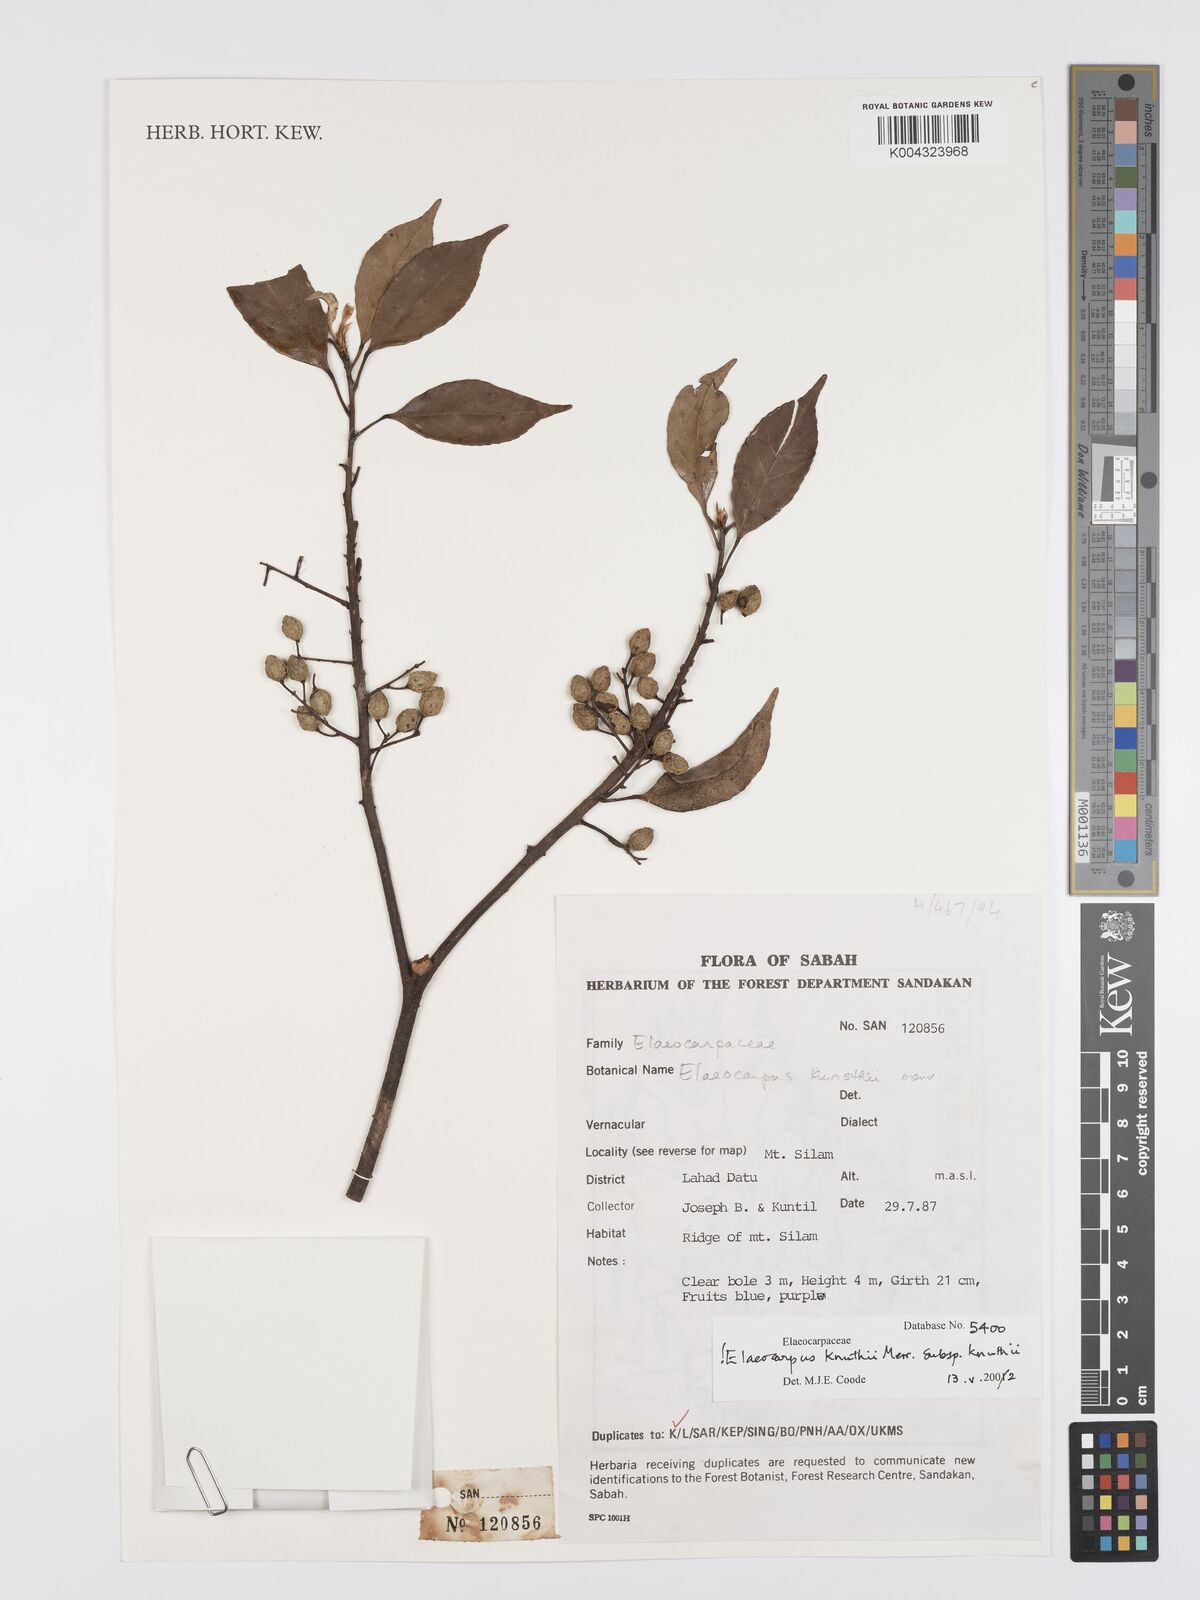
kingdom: Plantae
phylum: Tracheophyta
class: Magnoliopsida
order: Oxalidales
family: Elaeocarpaceae
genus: Elaeocarpus
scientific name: Elaeocarpus knuthii
